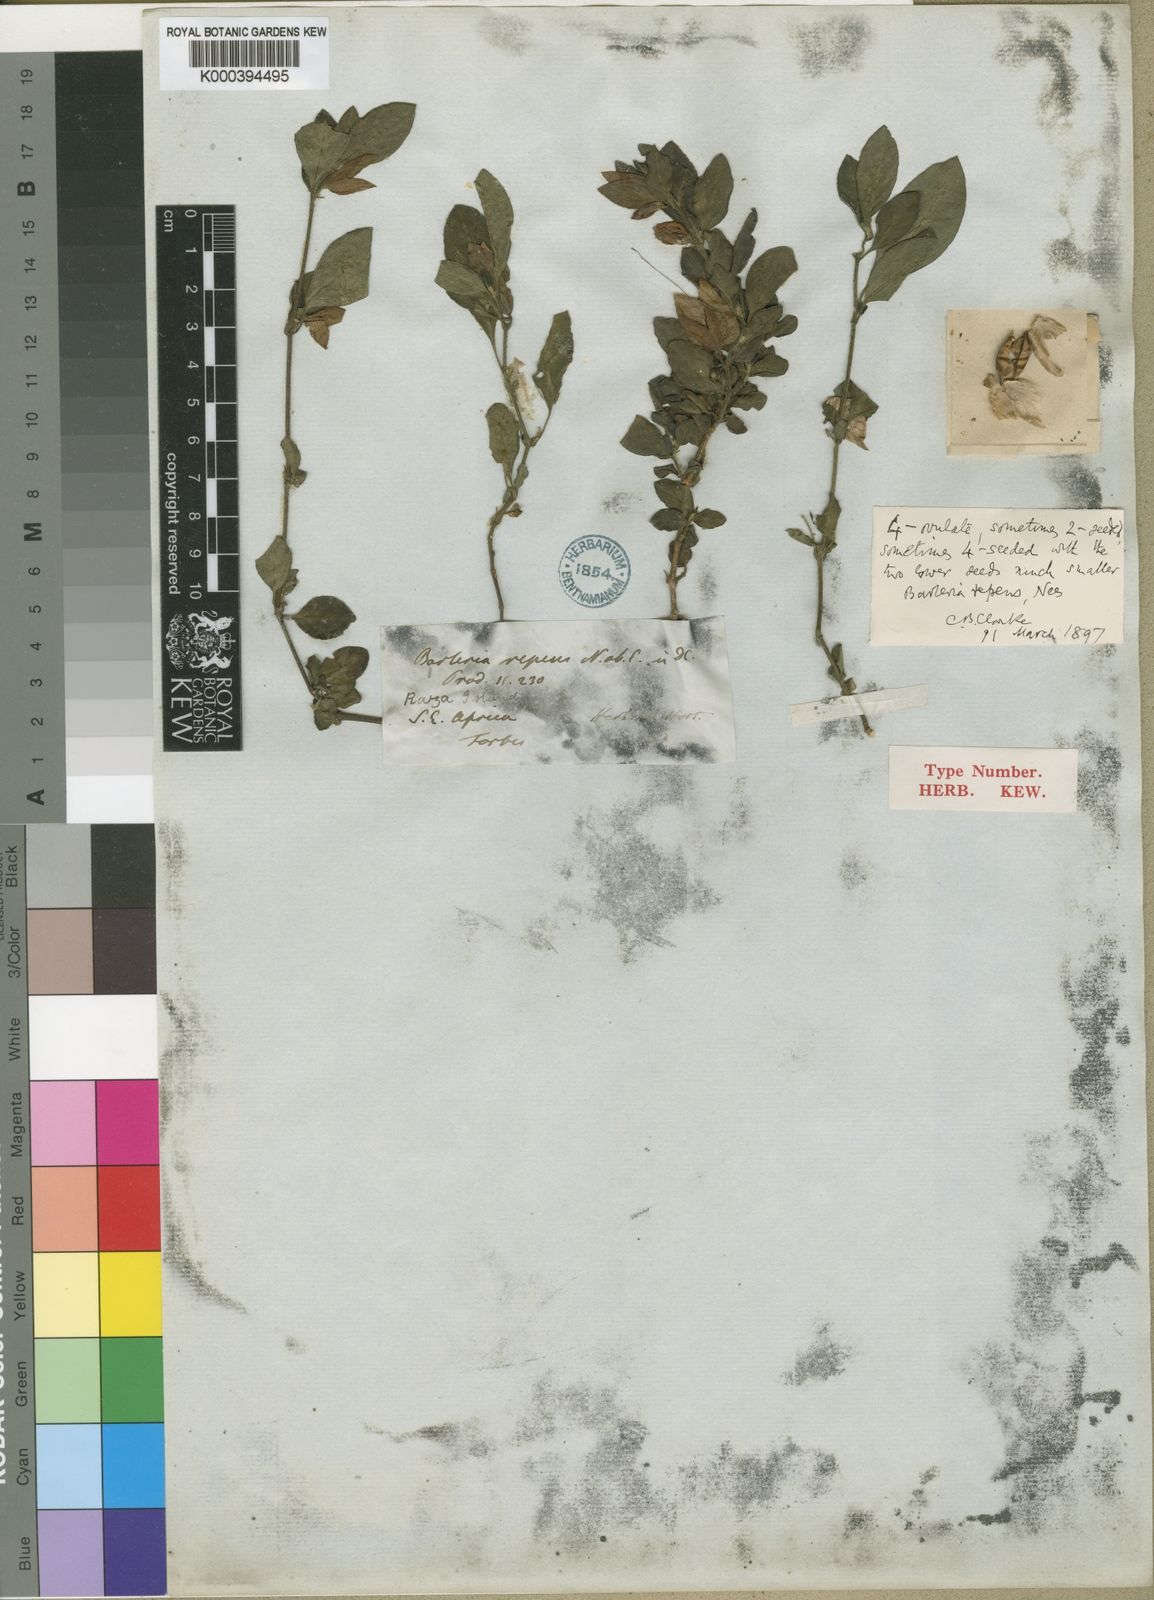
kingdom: Plantae
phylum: Tracheophyta
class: Magnoliopsida
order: Lamiales
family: Acanthaceae
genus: Barleria
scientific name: Barleria repens
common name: Pink-ruellia
